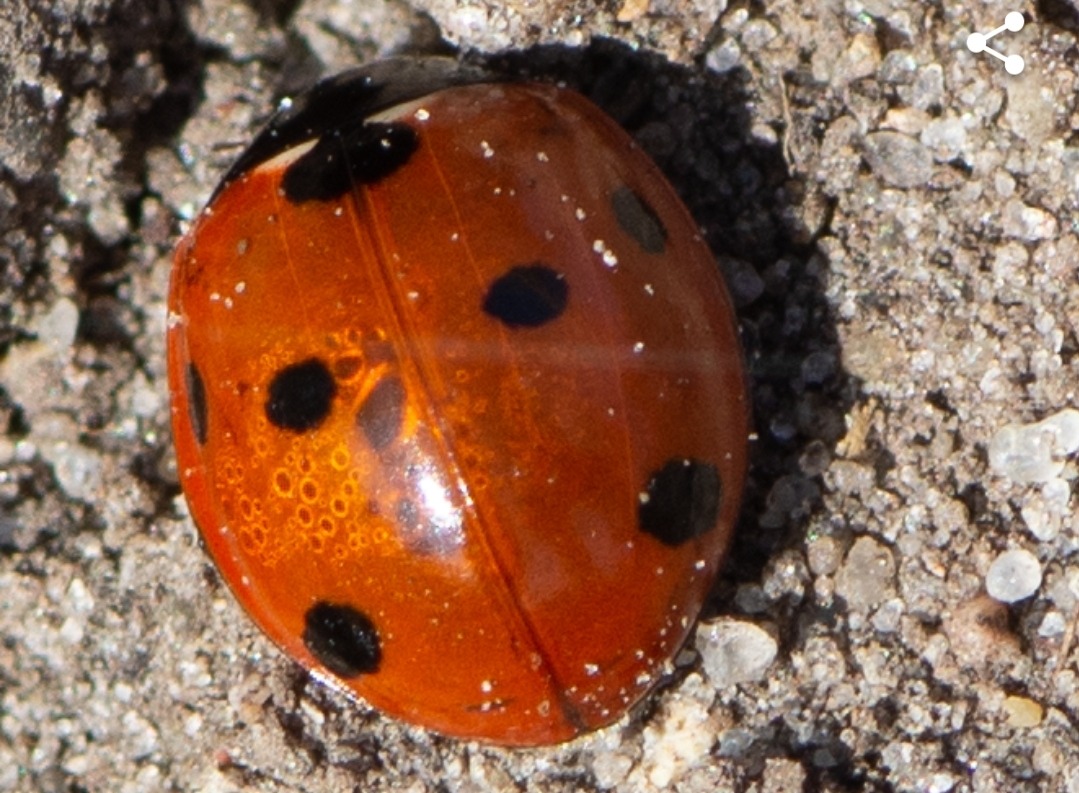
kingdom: Animalia
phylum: Arthropoda
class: Insecta
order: Coleoptera
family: Coccinellidae
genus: Coccinella
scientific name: Coccinella septempunctata
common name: Syvplettet mariehøne
